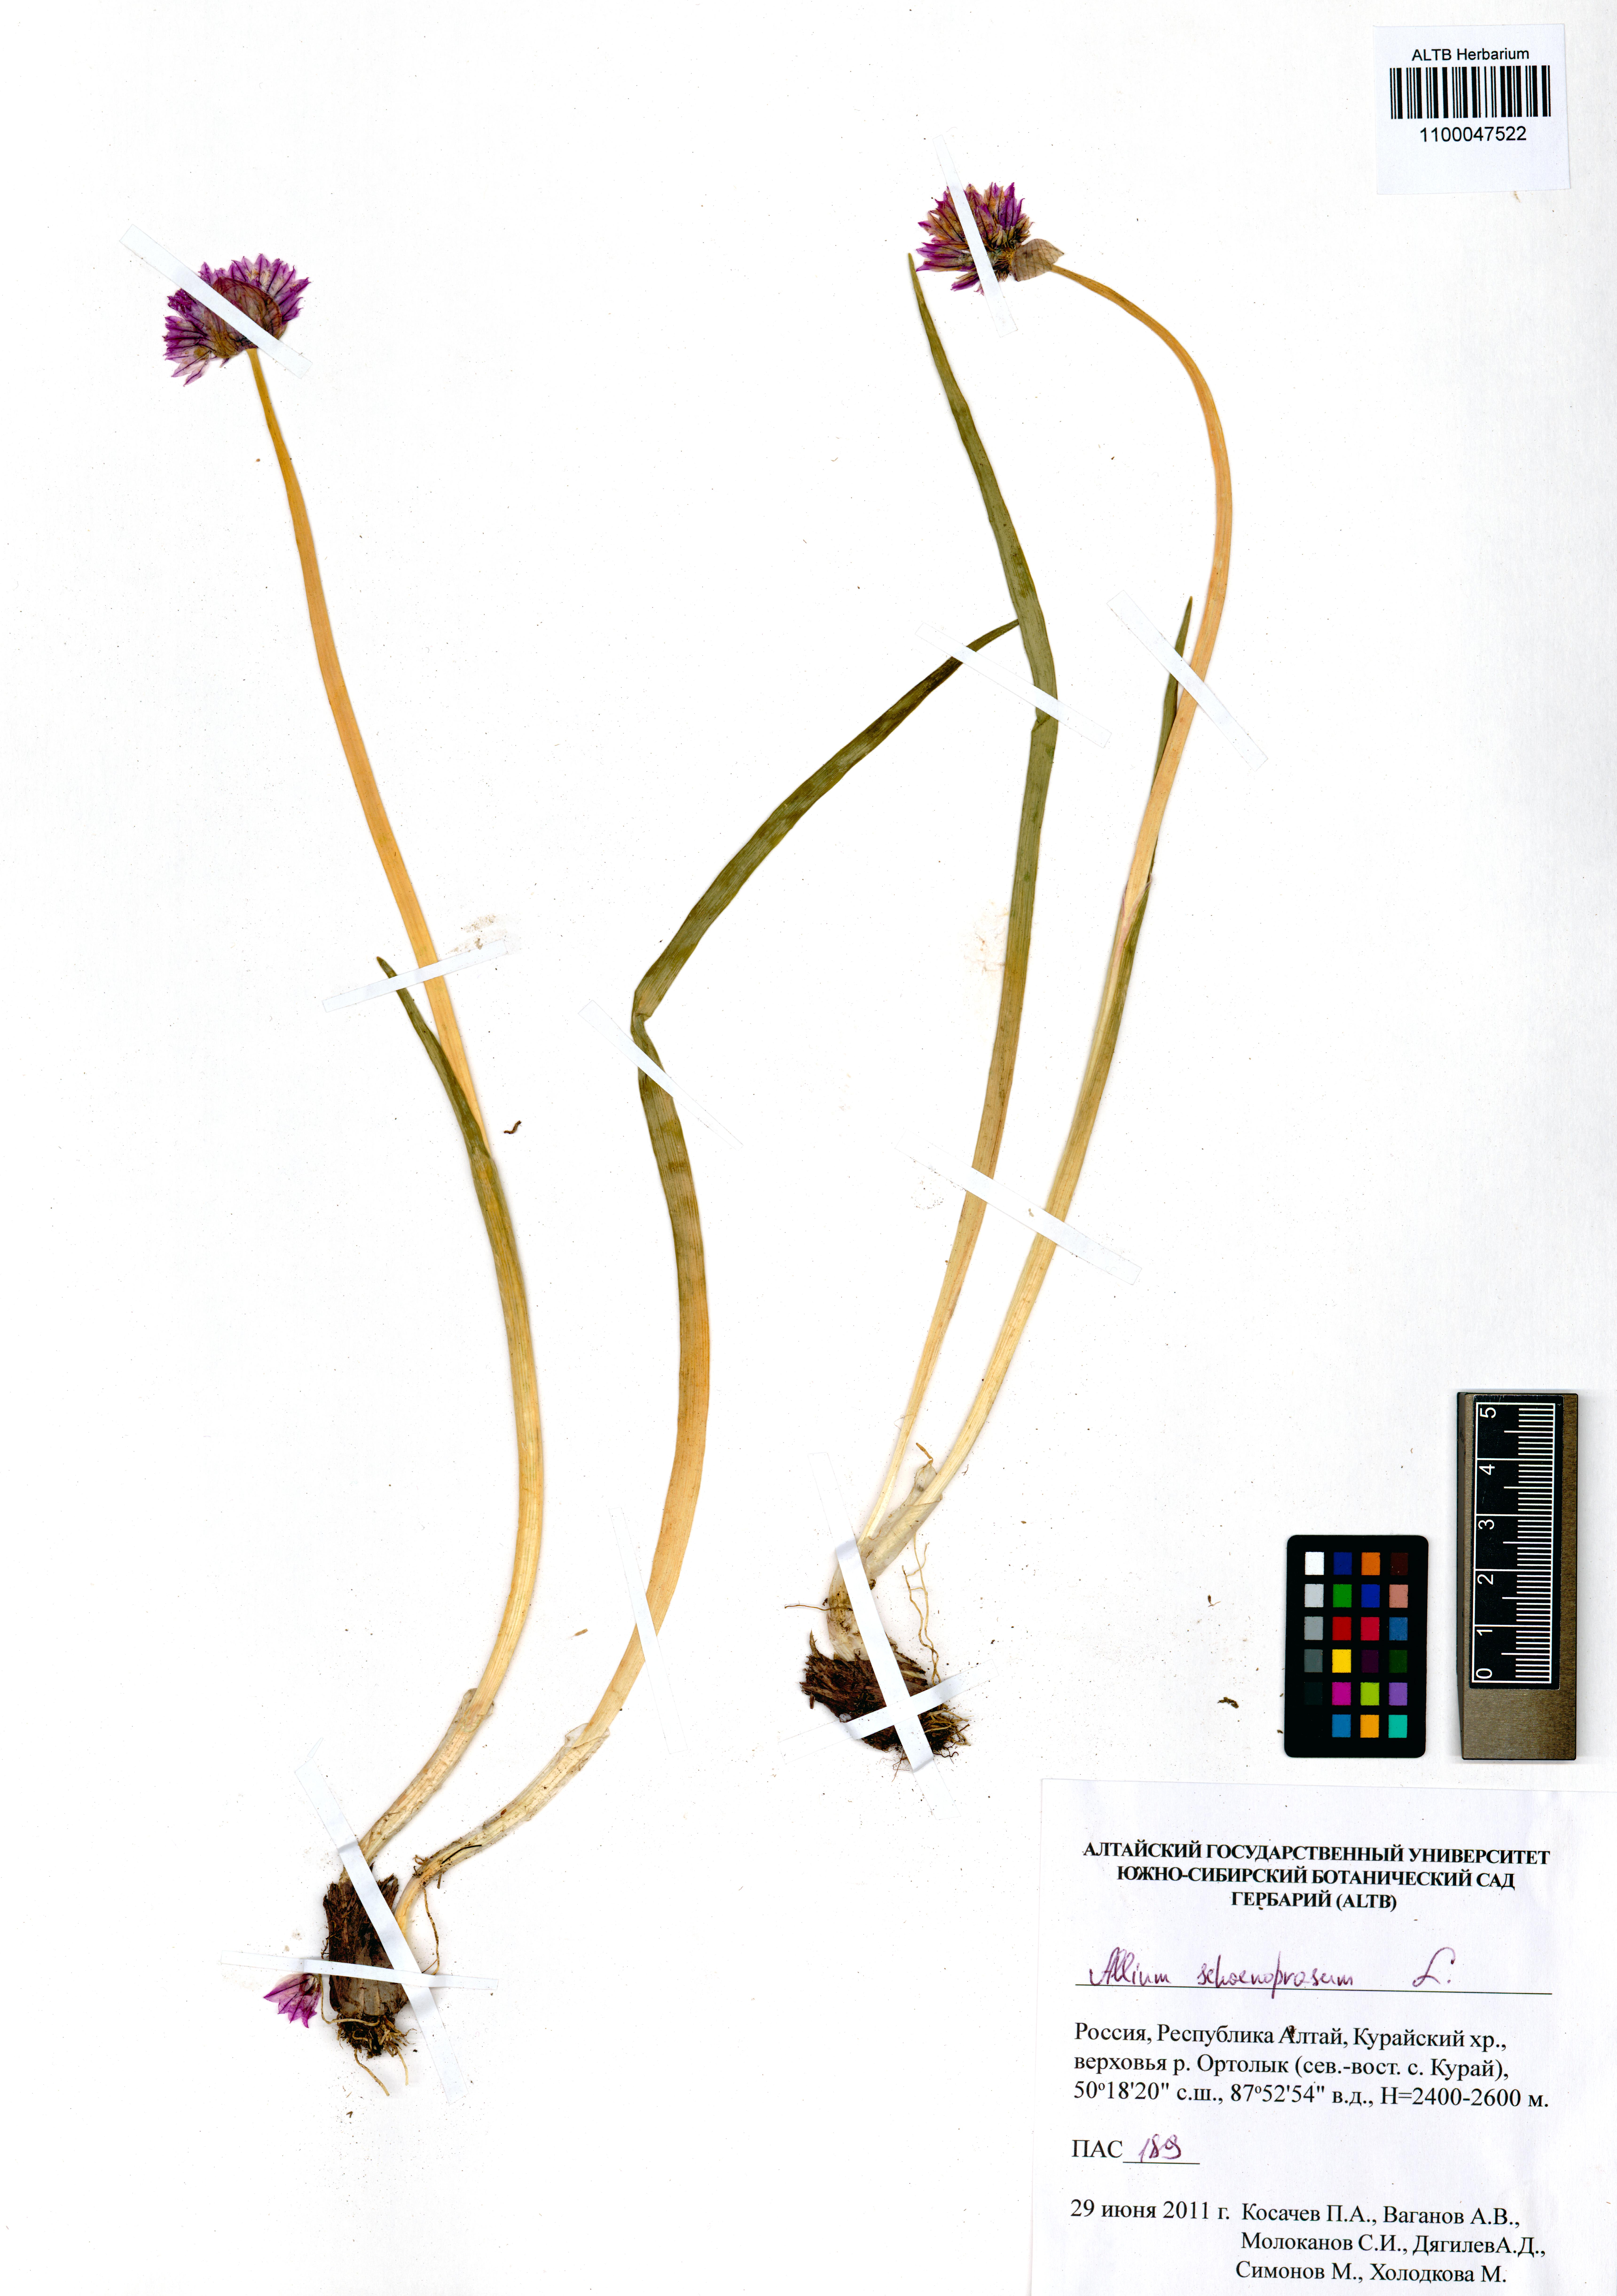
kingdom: Plantae
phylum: Tracheophyta
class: Liliopsida
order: Asparagales
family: Amaryllidaceae
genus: Allium
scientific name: Allium schoenoprasum
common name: Chives
